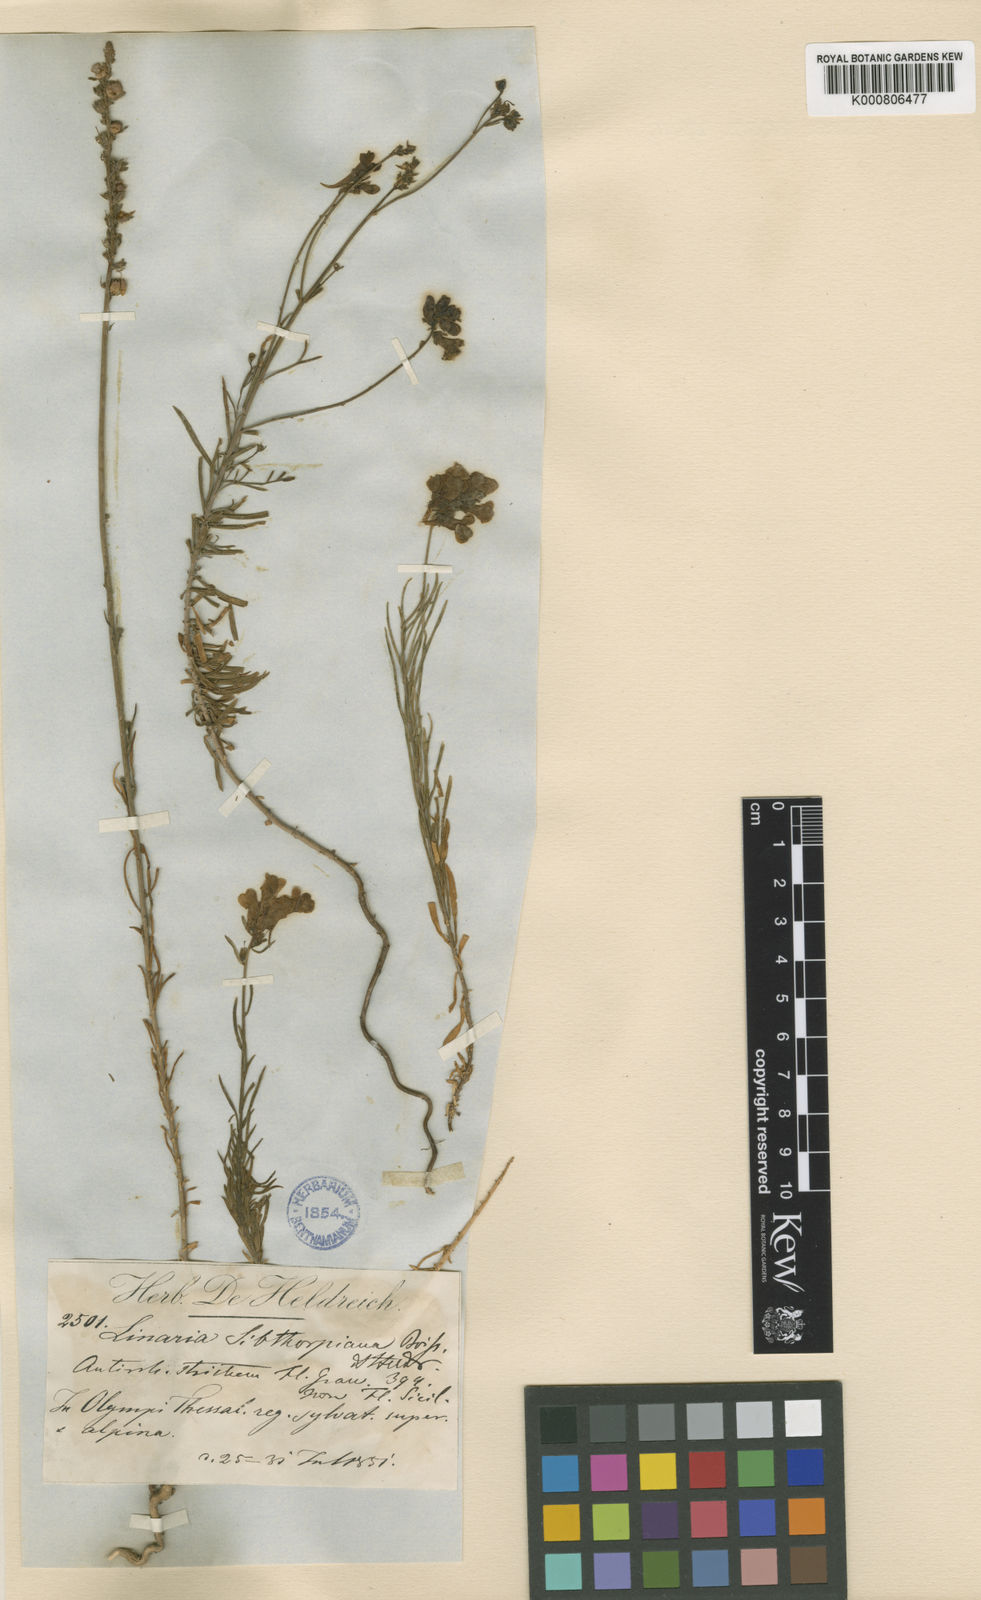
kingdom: Plantae
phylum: Tracheophyta
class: Magnoliopsida
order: Lamiales
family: Plantaginaceae
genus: Linaria
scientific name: Linaria peloponnesiaca
